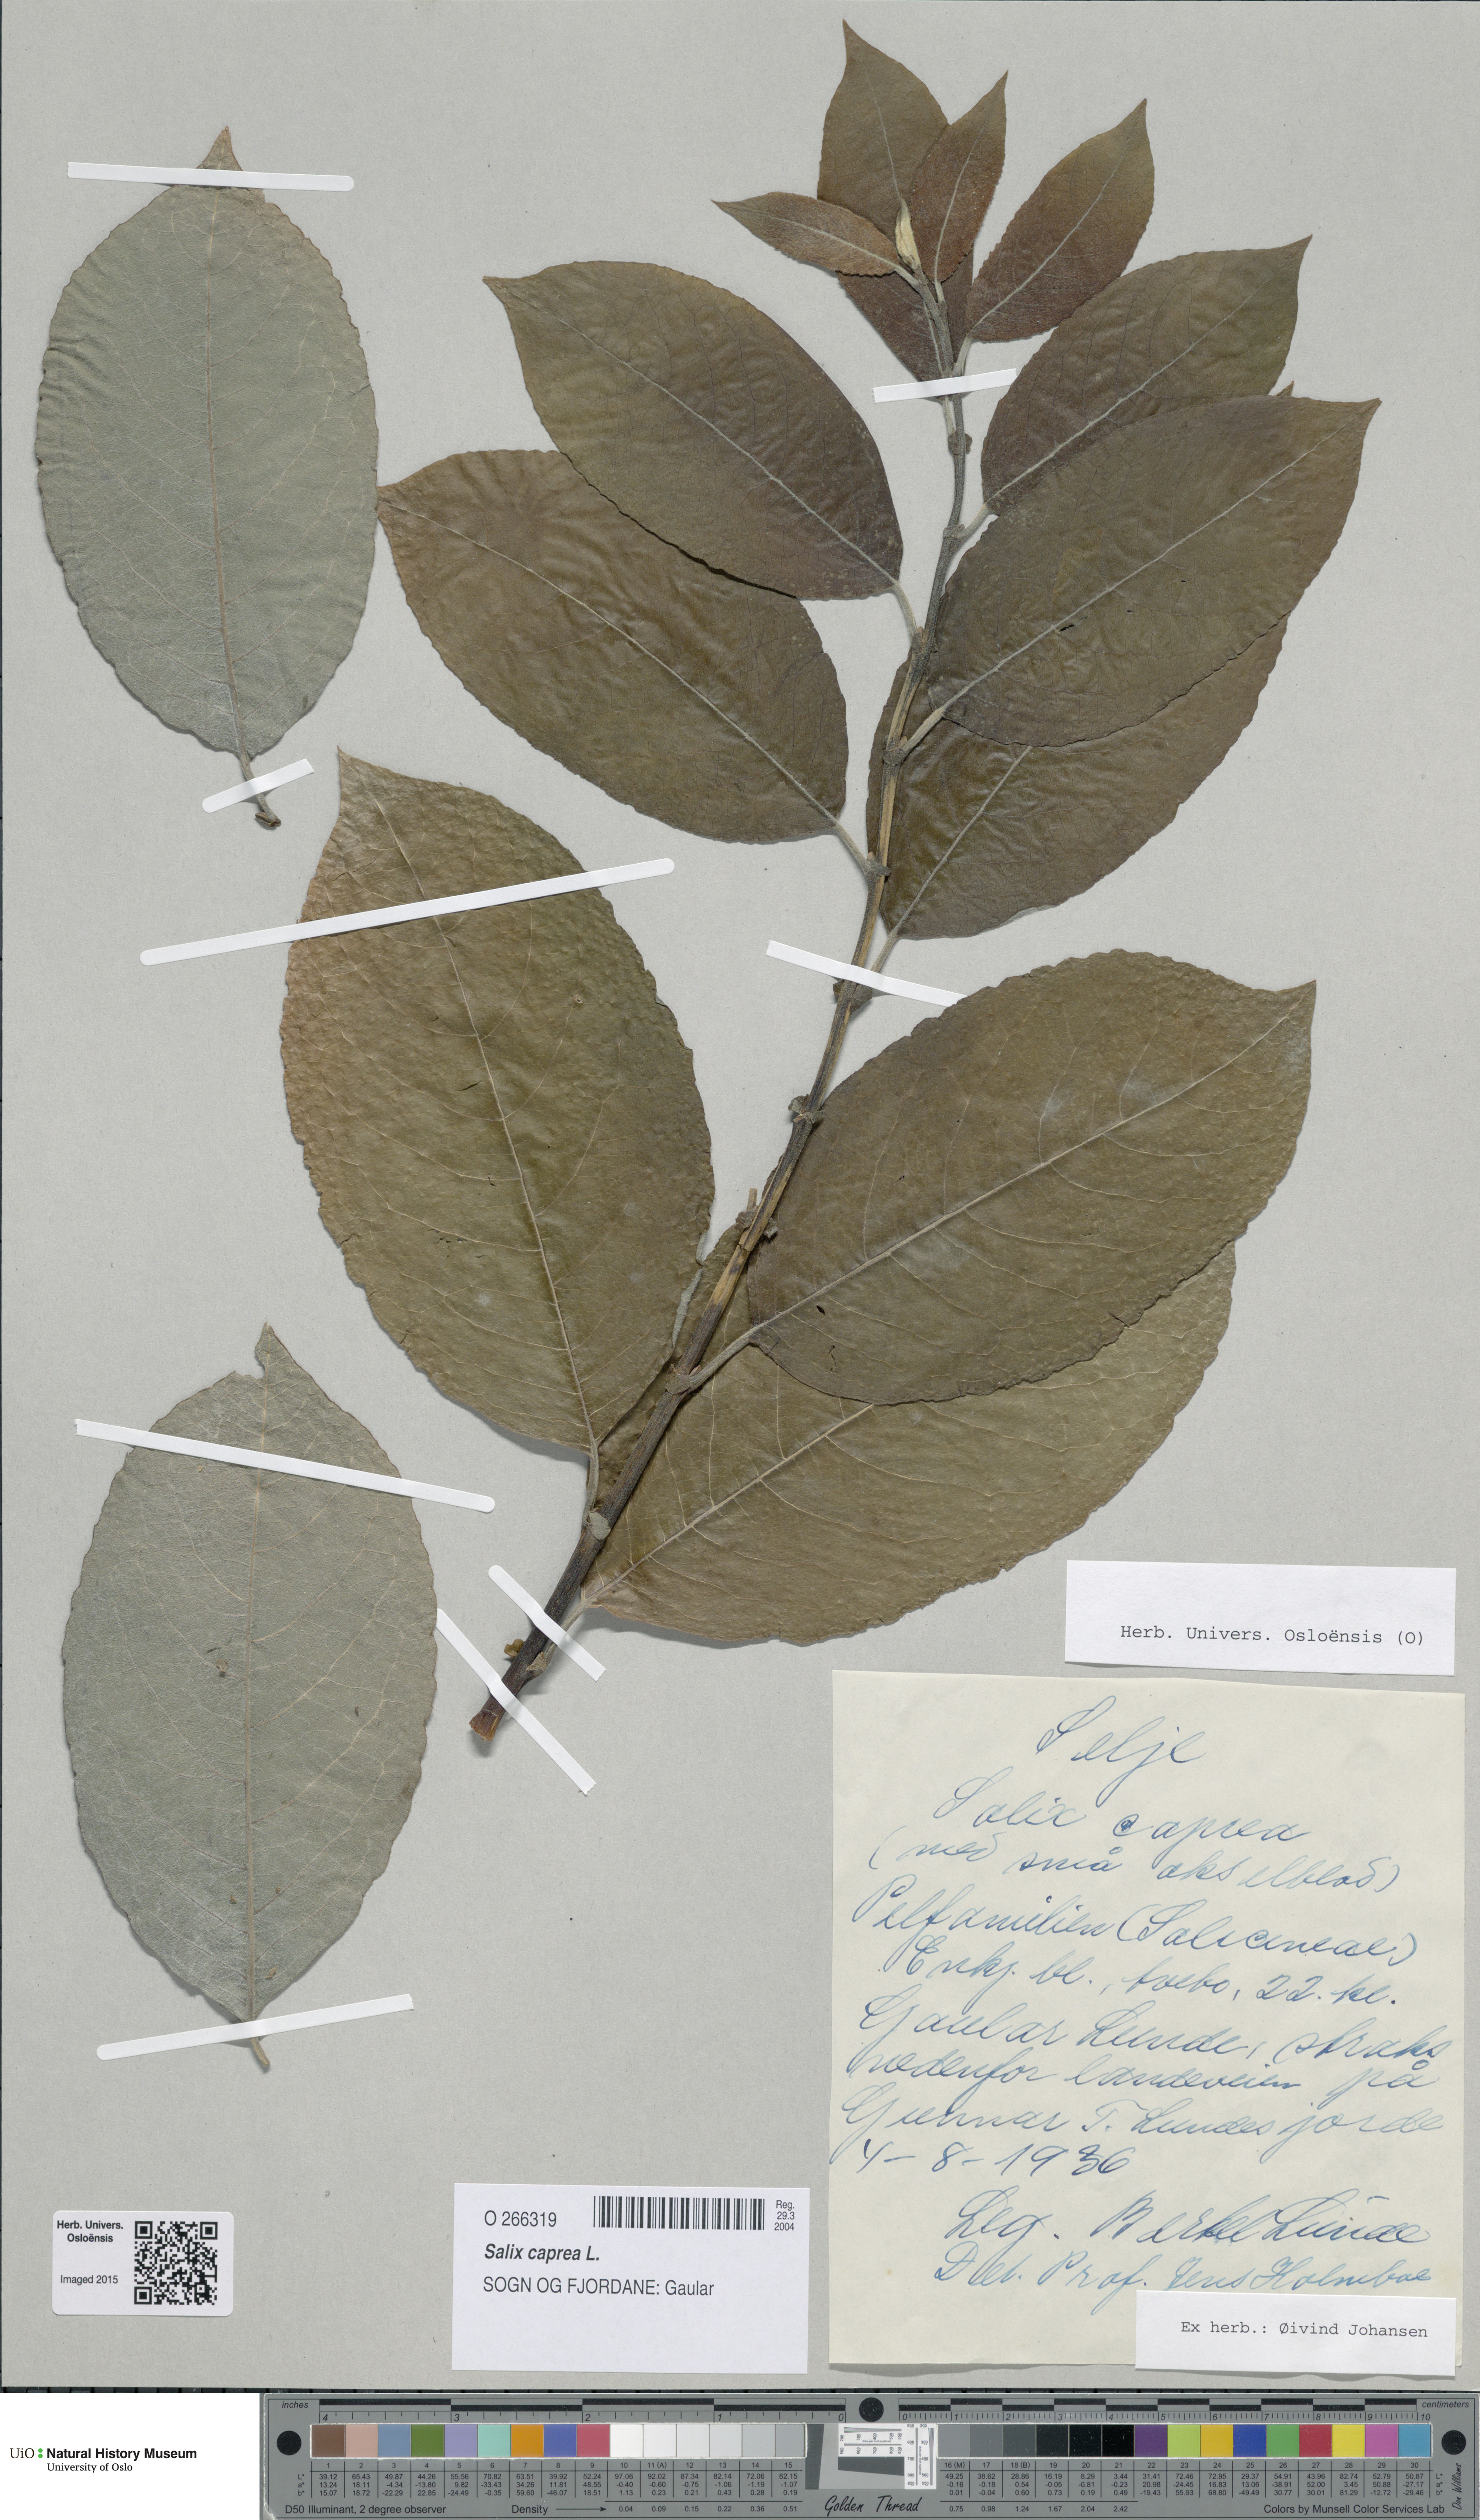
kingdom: Plantae
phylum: Tracheophyta
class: Magnoliopsida
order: Malpighiales
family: Salicaceae
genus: Salix
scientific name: Salix caprea
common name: Goat willow
